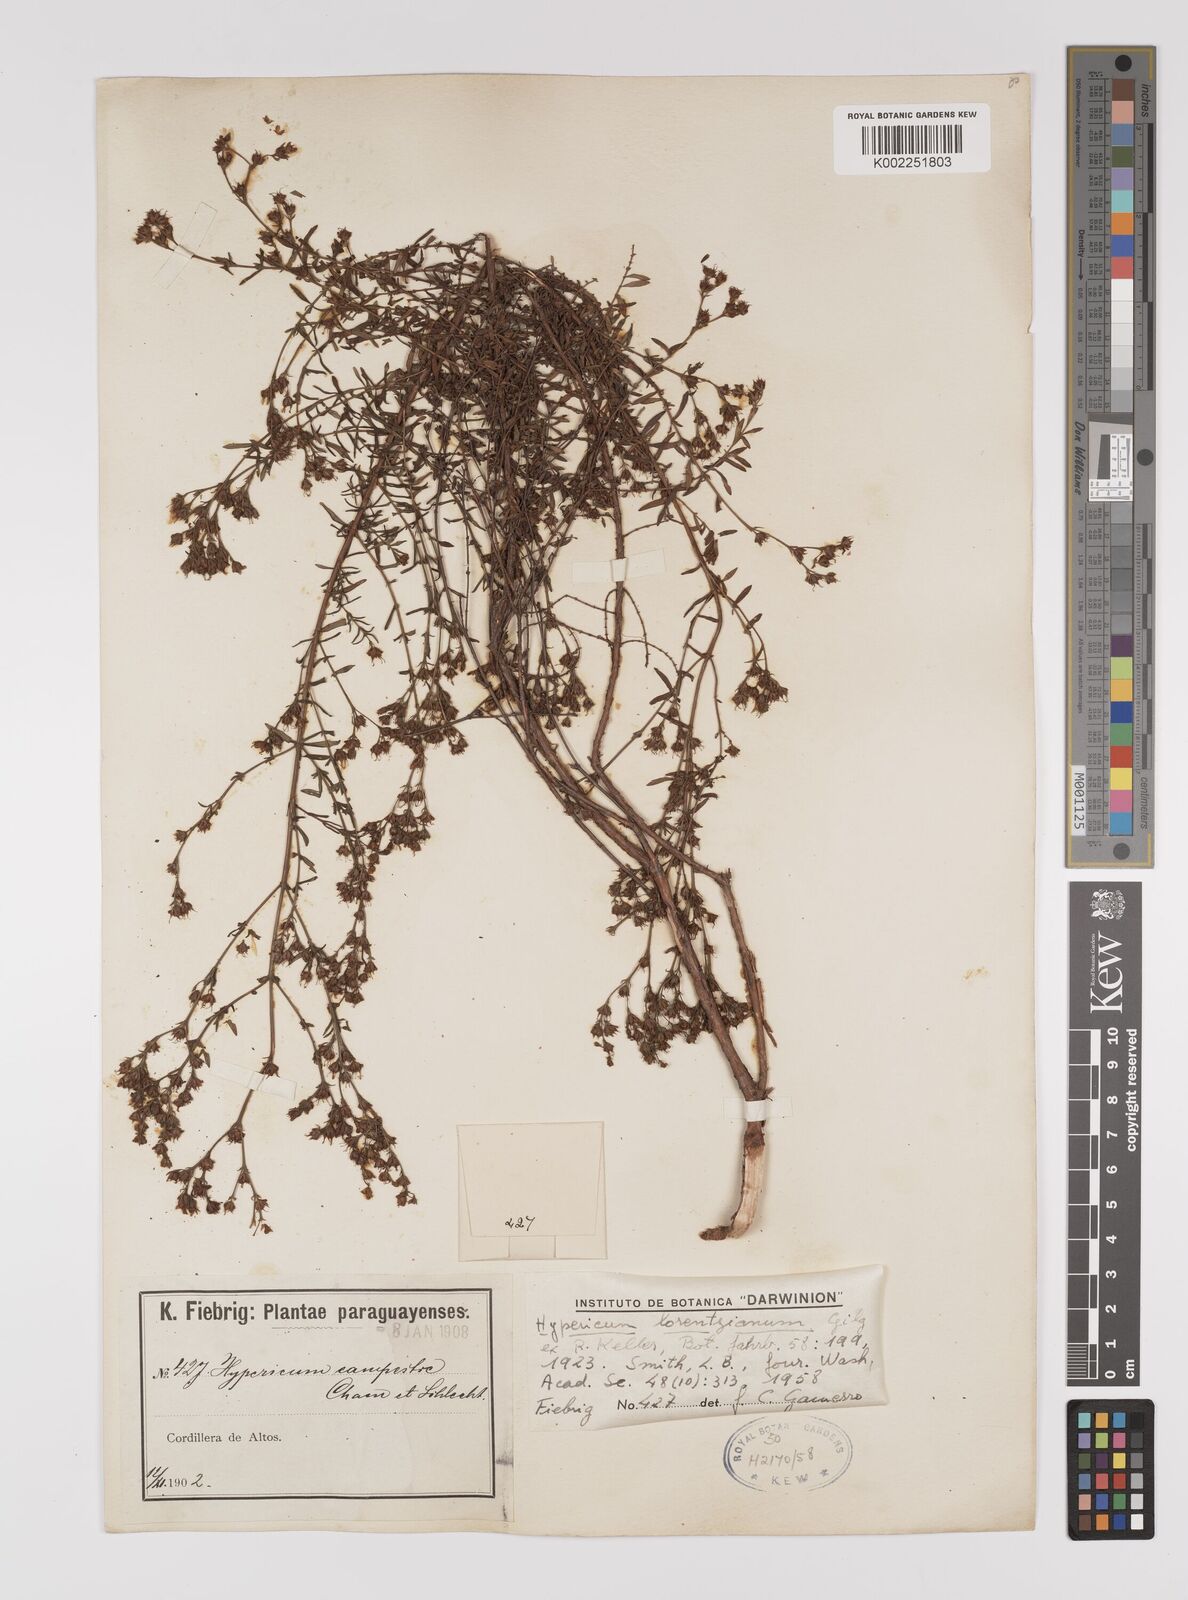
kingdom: Plantae
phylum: Tracheophyta
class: Magnoliopsida
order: Malpighiales
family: Hypericaceae
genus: Hypericum
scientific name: Hypericum lorentzianum
